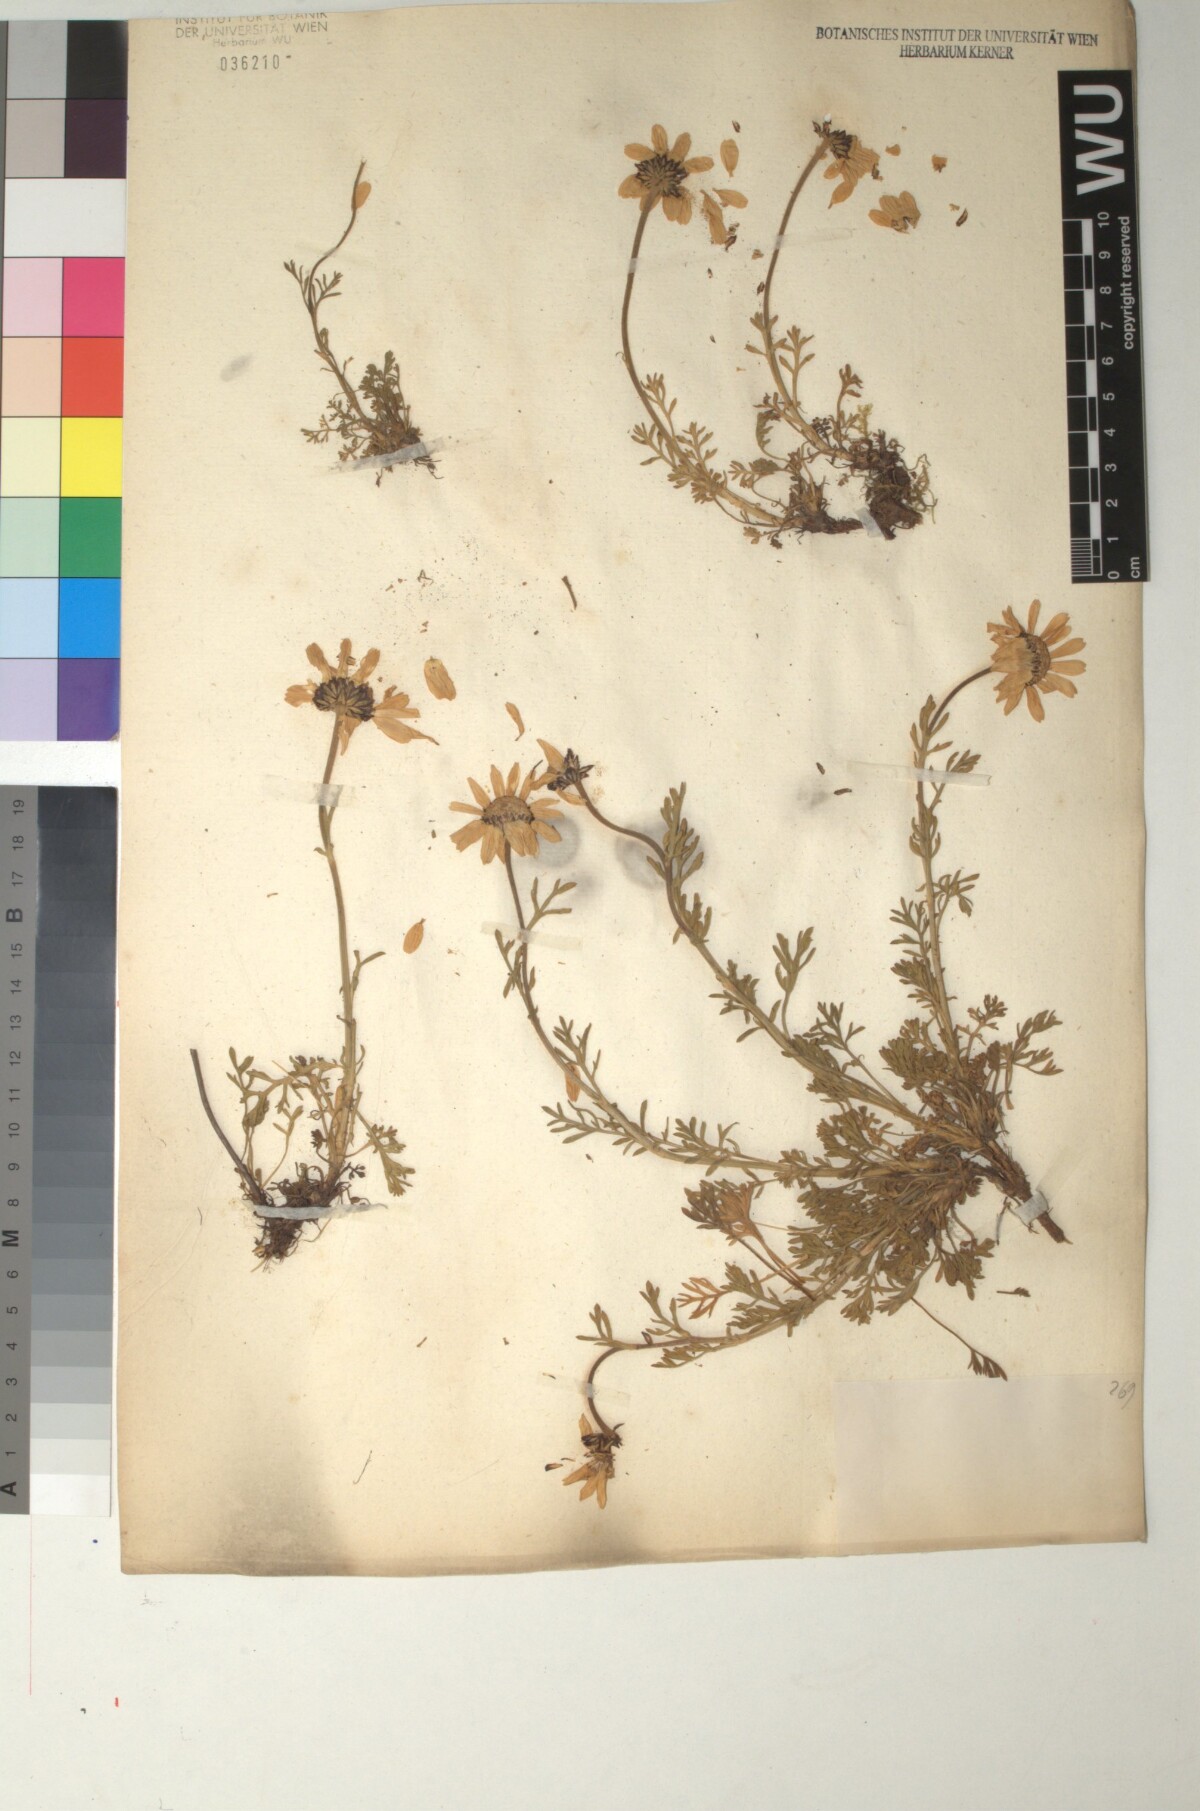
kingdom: Plantae
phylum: Tracheophyta
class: Magnoliopsida
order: Asterales
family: Asteraceae
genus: Anthemis
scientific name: Anthemis cretica
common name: Mountain dog-daisy
